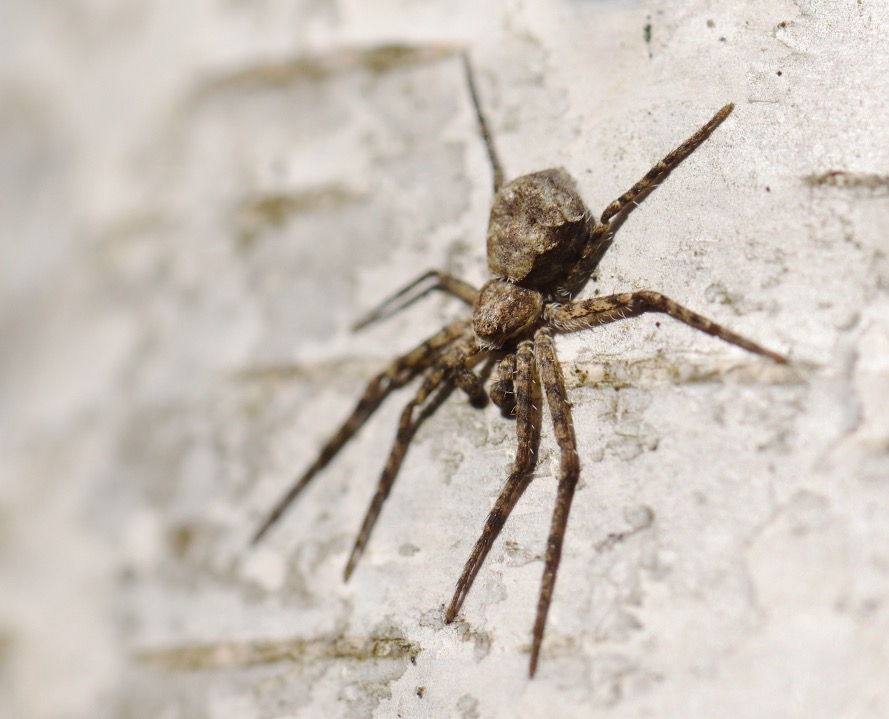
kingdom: Animalia
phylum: Arthropoda
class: Arachnida
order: Araneae
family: Philodromidae
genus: Philodromus
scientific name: Philodromus margaritatus
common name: Dødningehoved-edderkop
